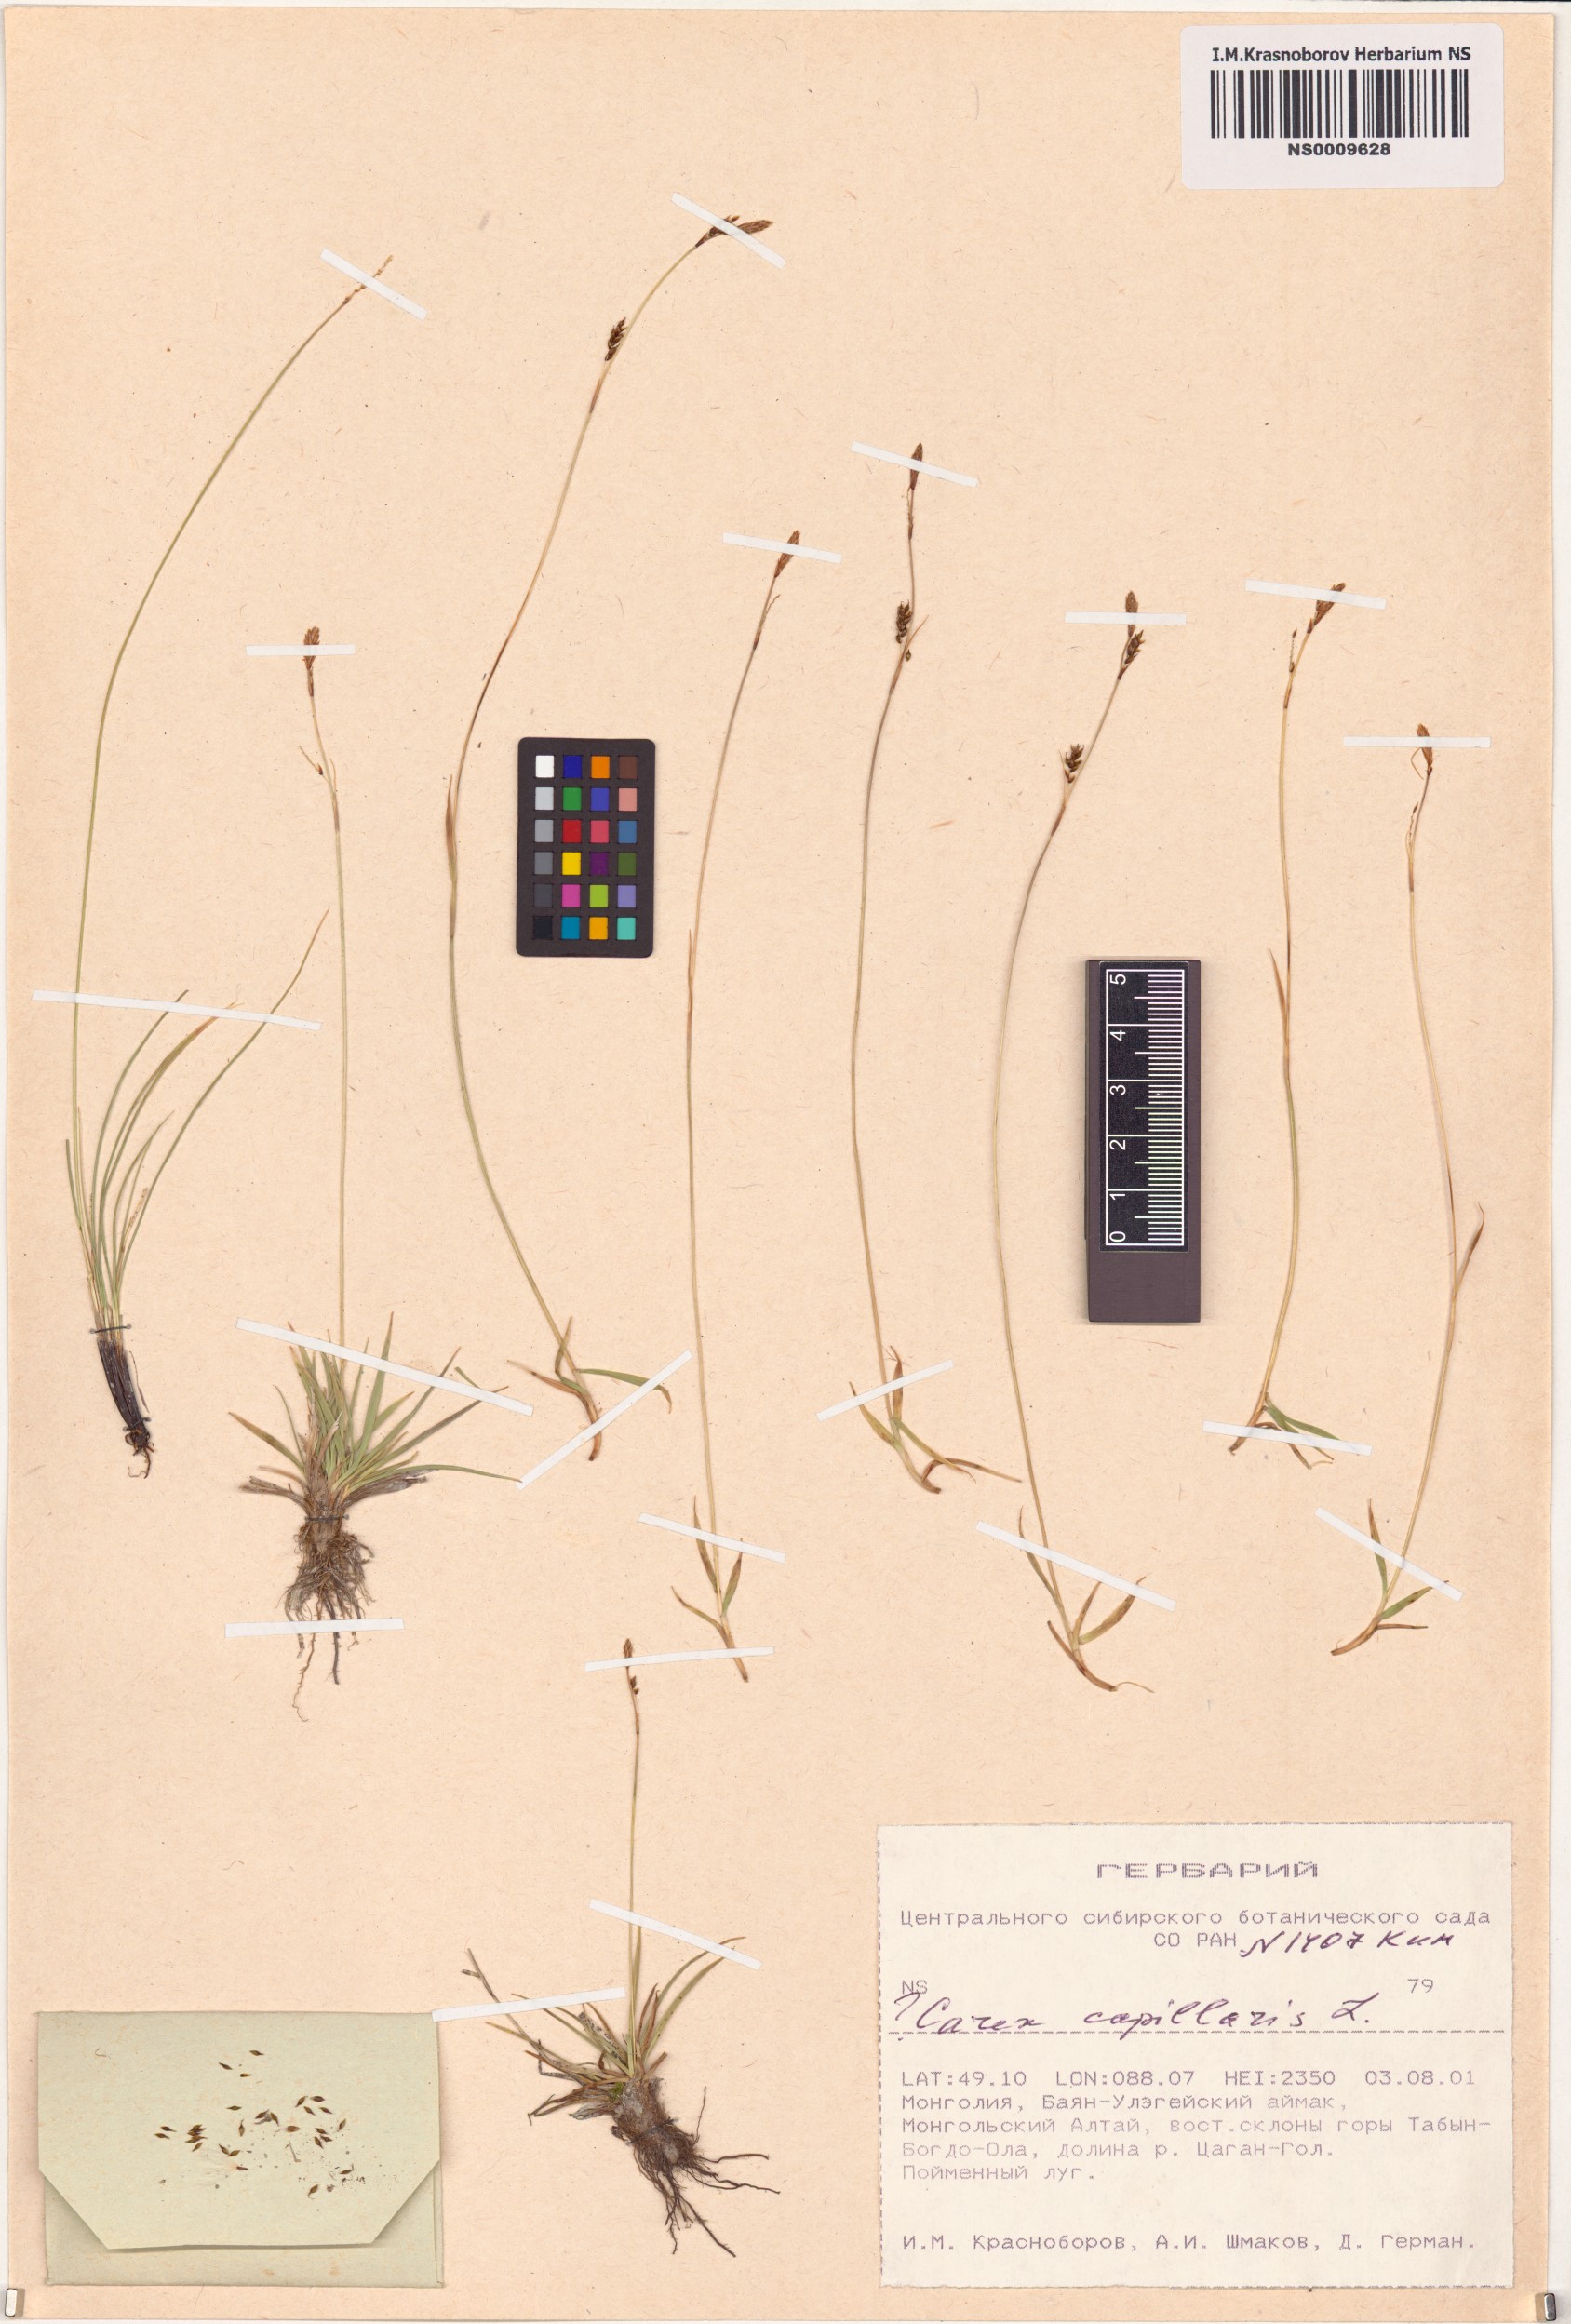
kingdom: Plantae
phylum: Tracheophyta
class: Liliopsida
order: Poales
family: Cyperaceae
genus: Carex
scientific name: Carex capillaris
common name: Hair sedge
